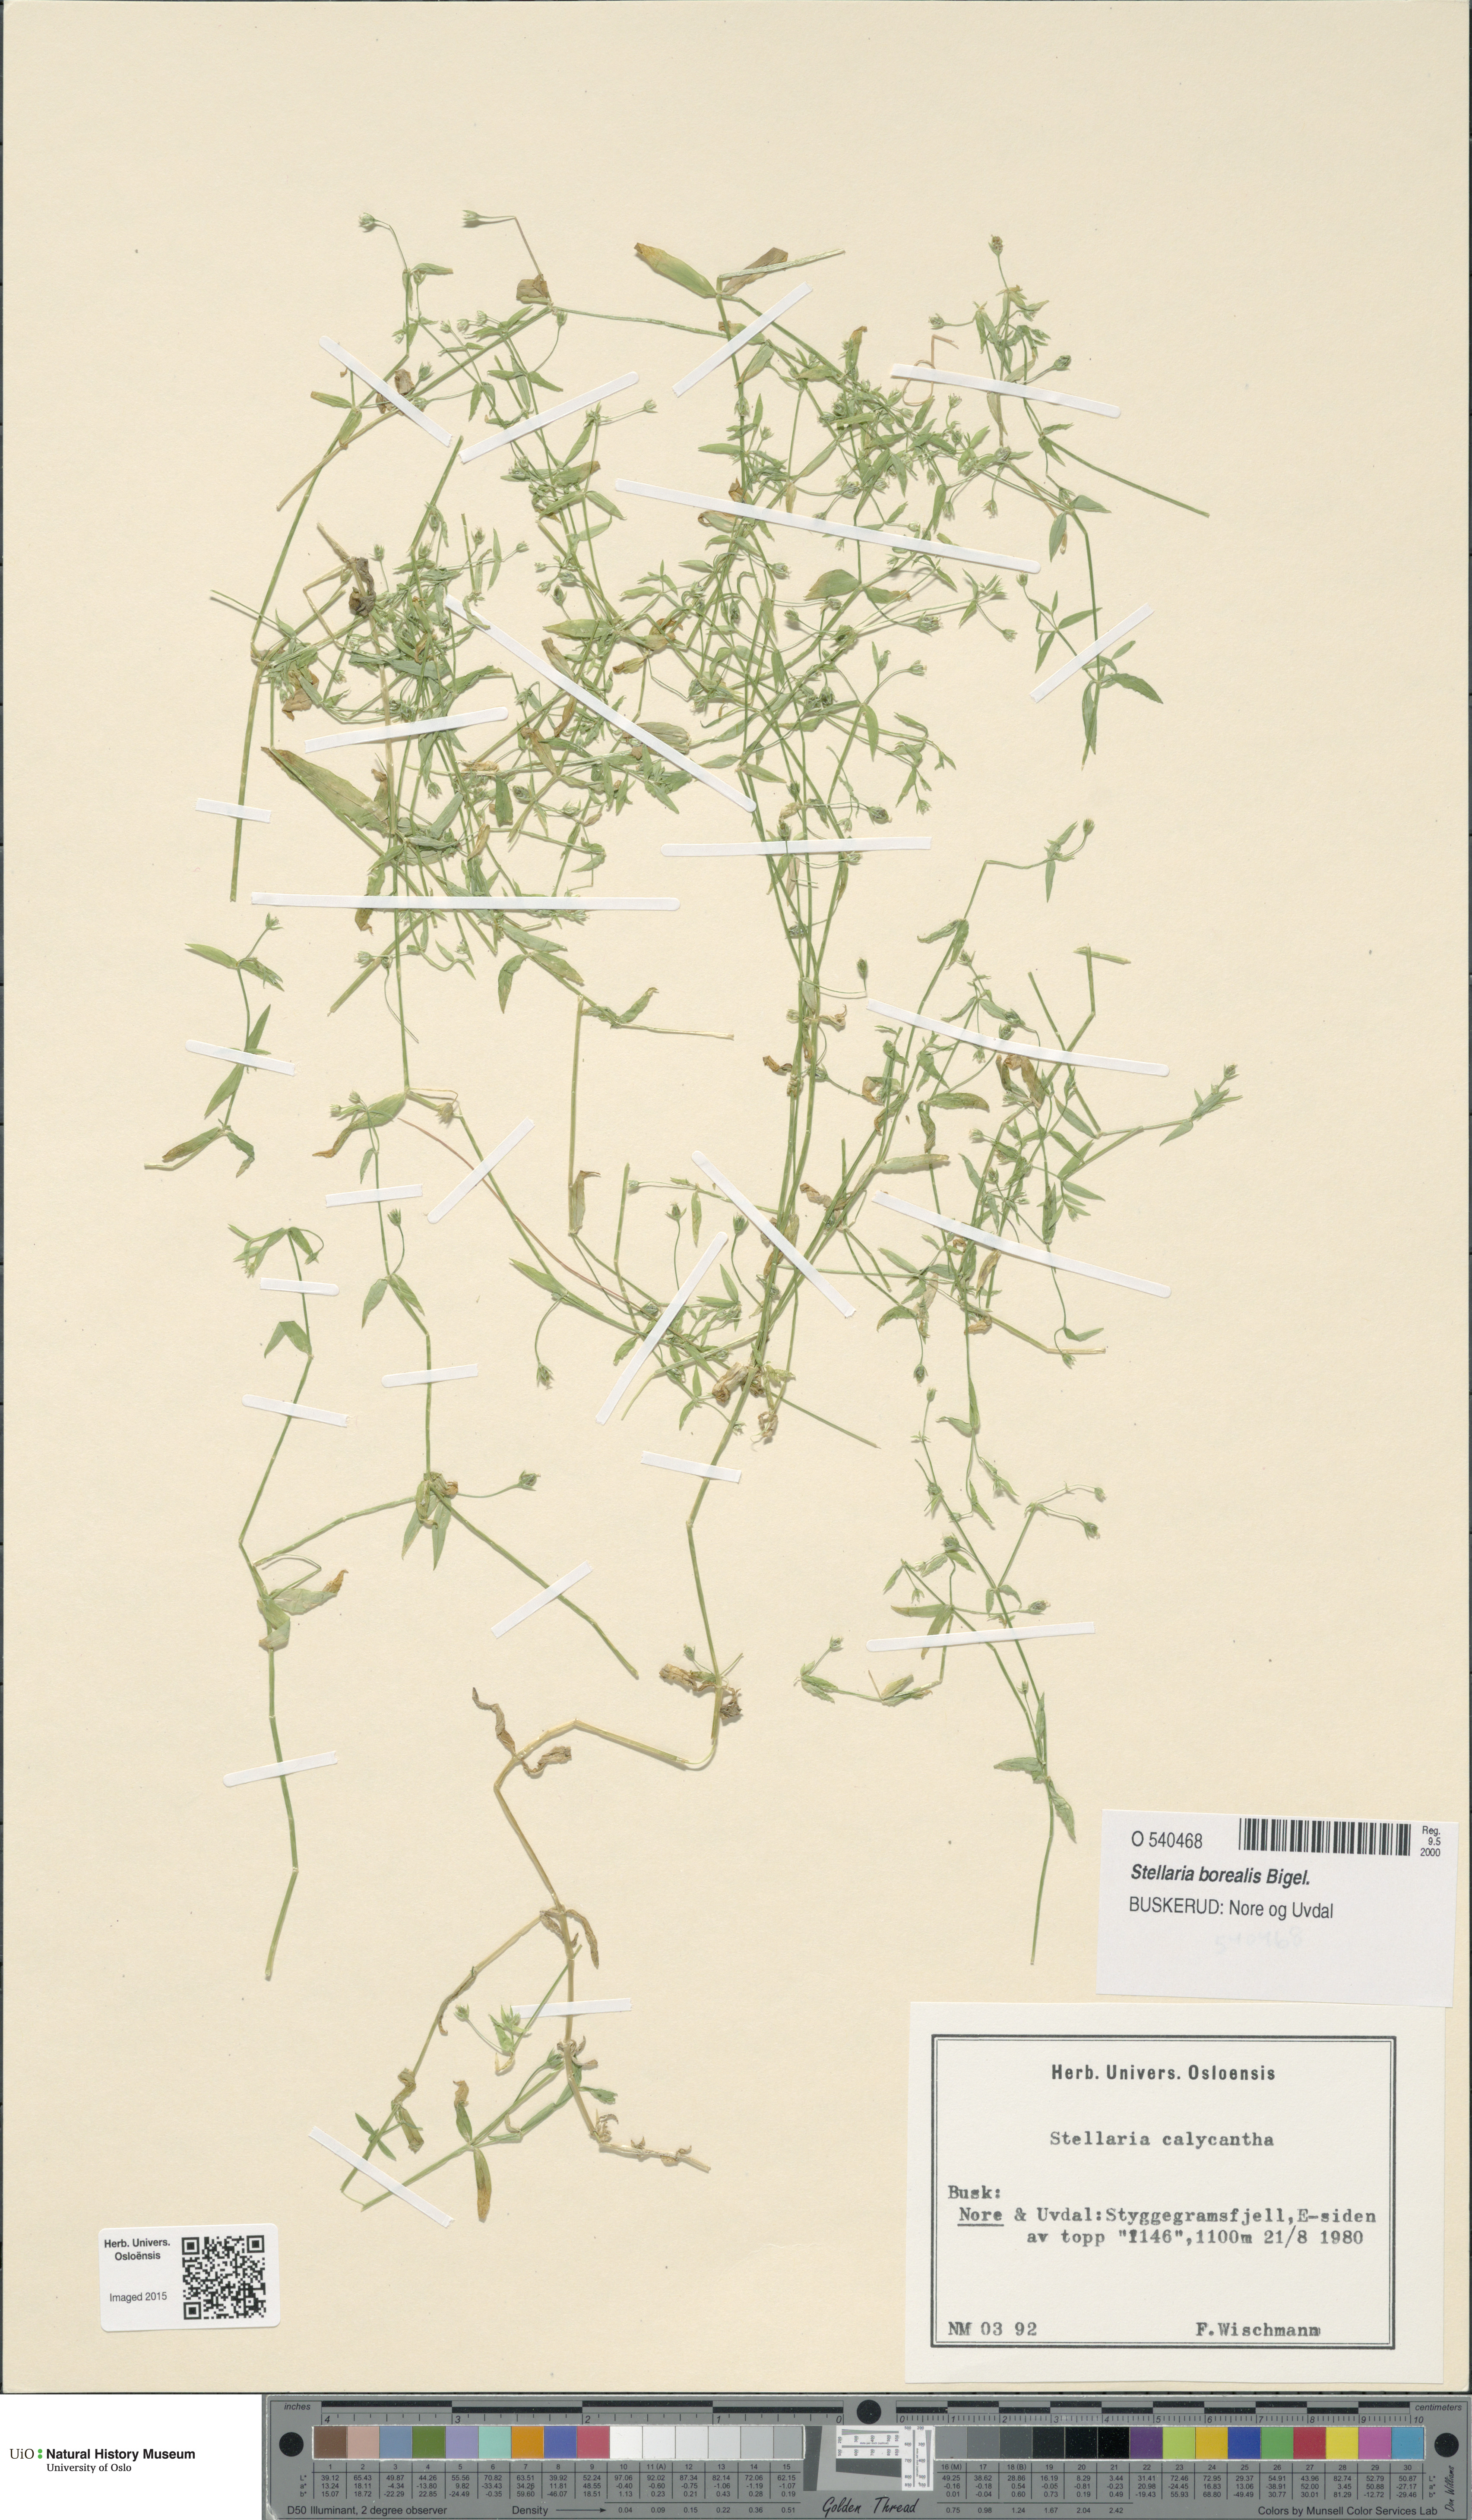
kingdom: Plantae
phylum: Tracheophyta
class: Magnoliopsida
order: Caryophyllales
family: Caryophyllaceae
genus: Stellaria
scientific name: Stellaria borealis
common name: Boreal starwort
